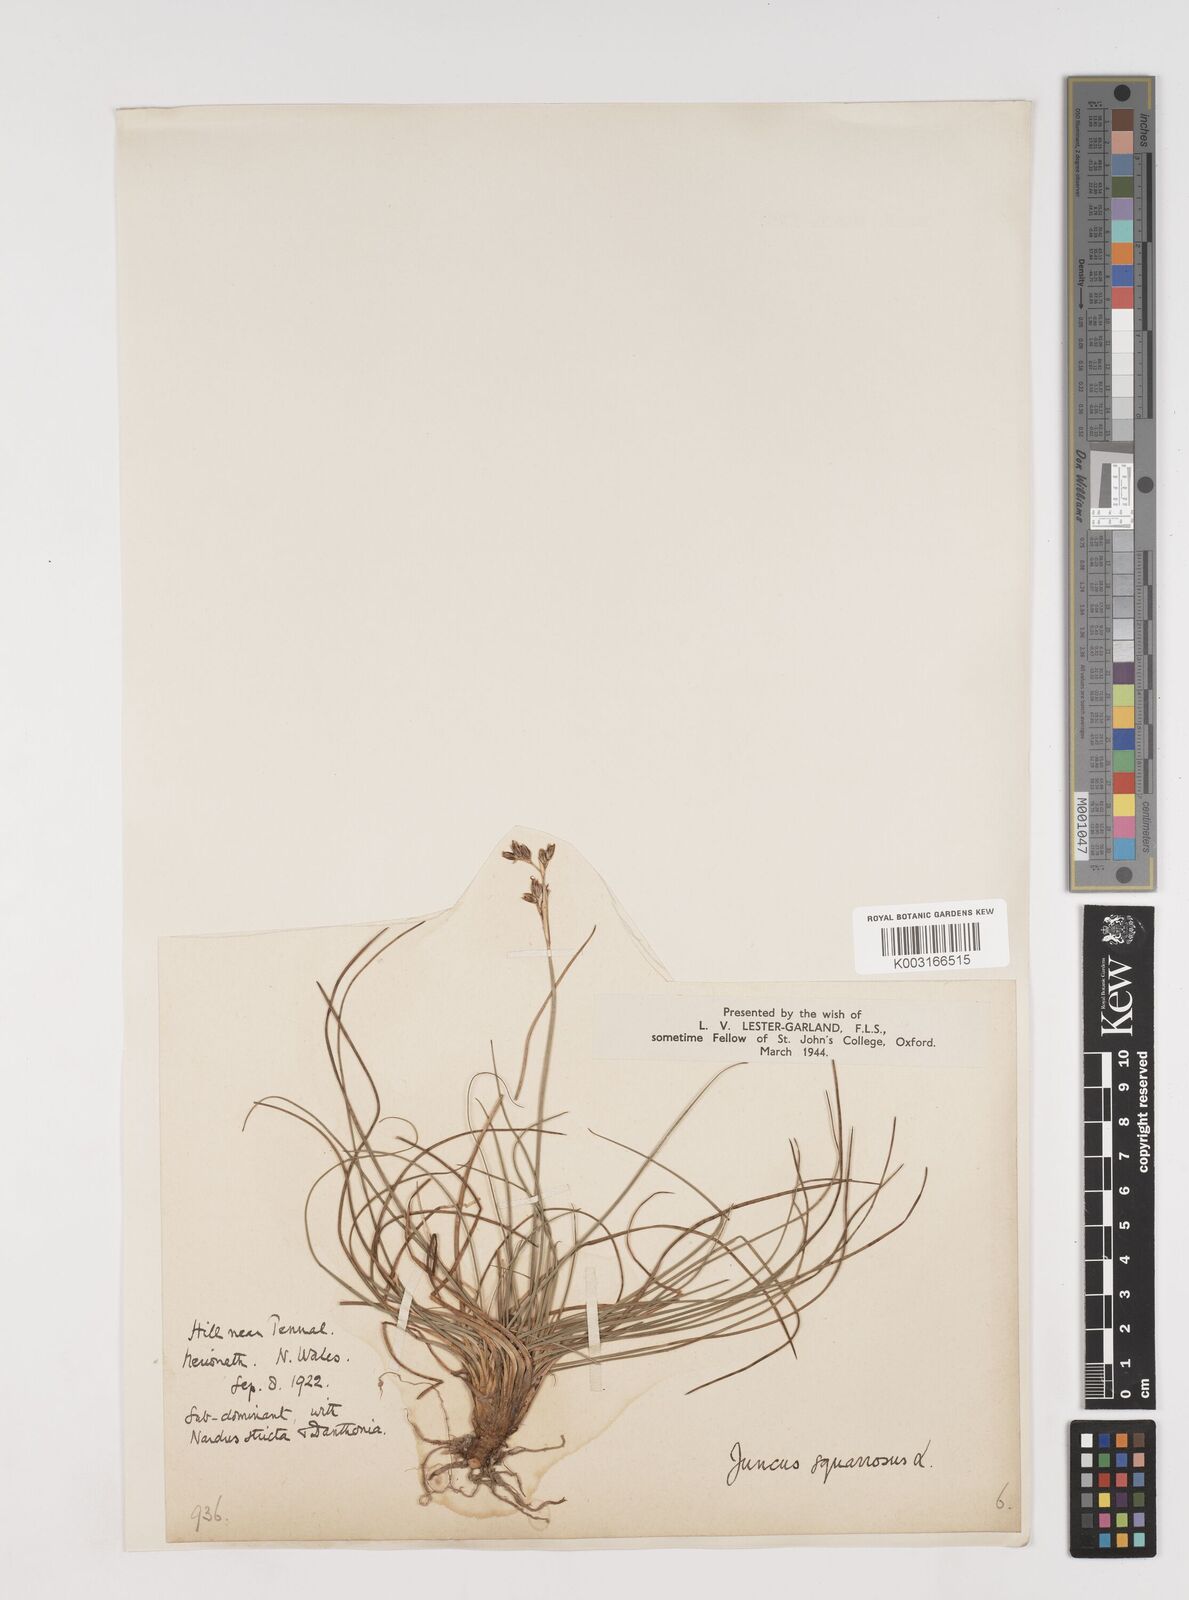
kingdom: Plantae
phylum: Tracheophyta
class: Liliopsida
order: Poales
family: Juncaceae
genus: Juncus
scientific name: Juncus squarrosus
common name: Heath rush
